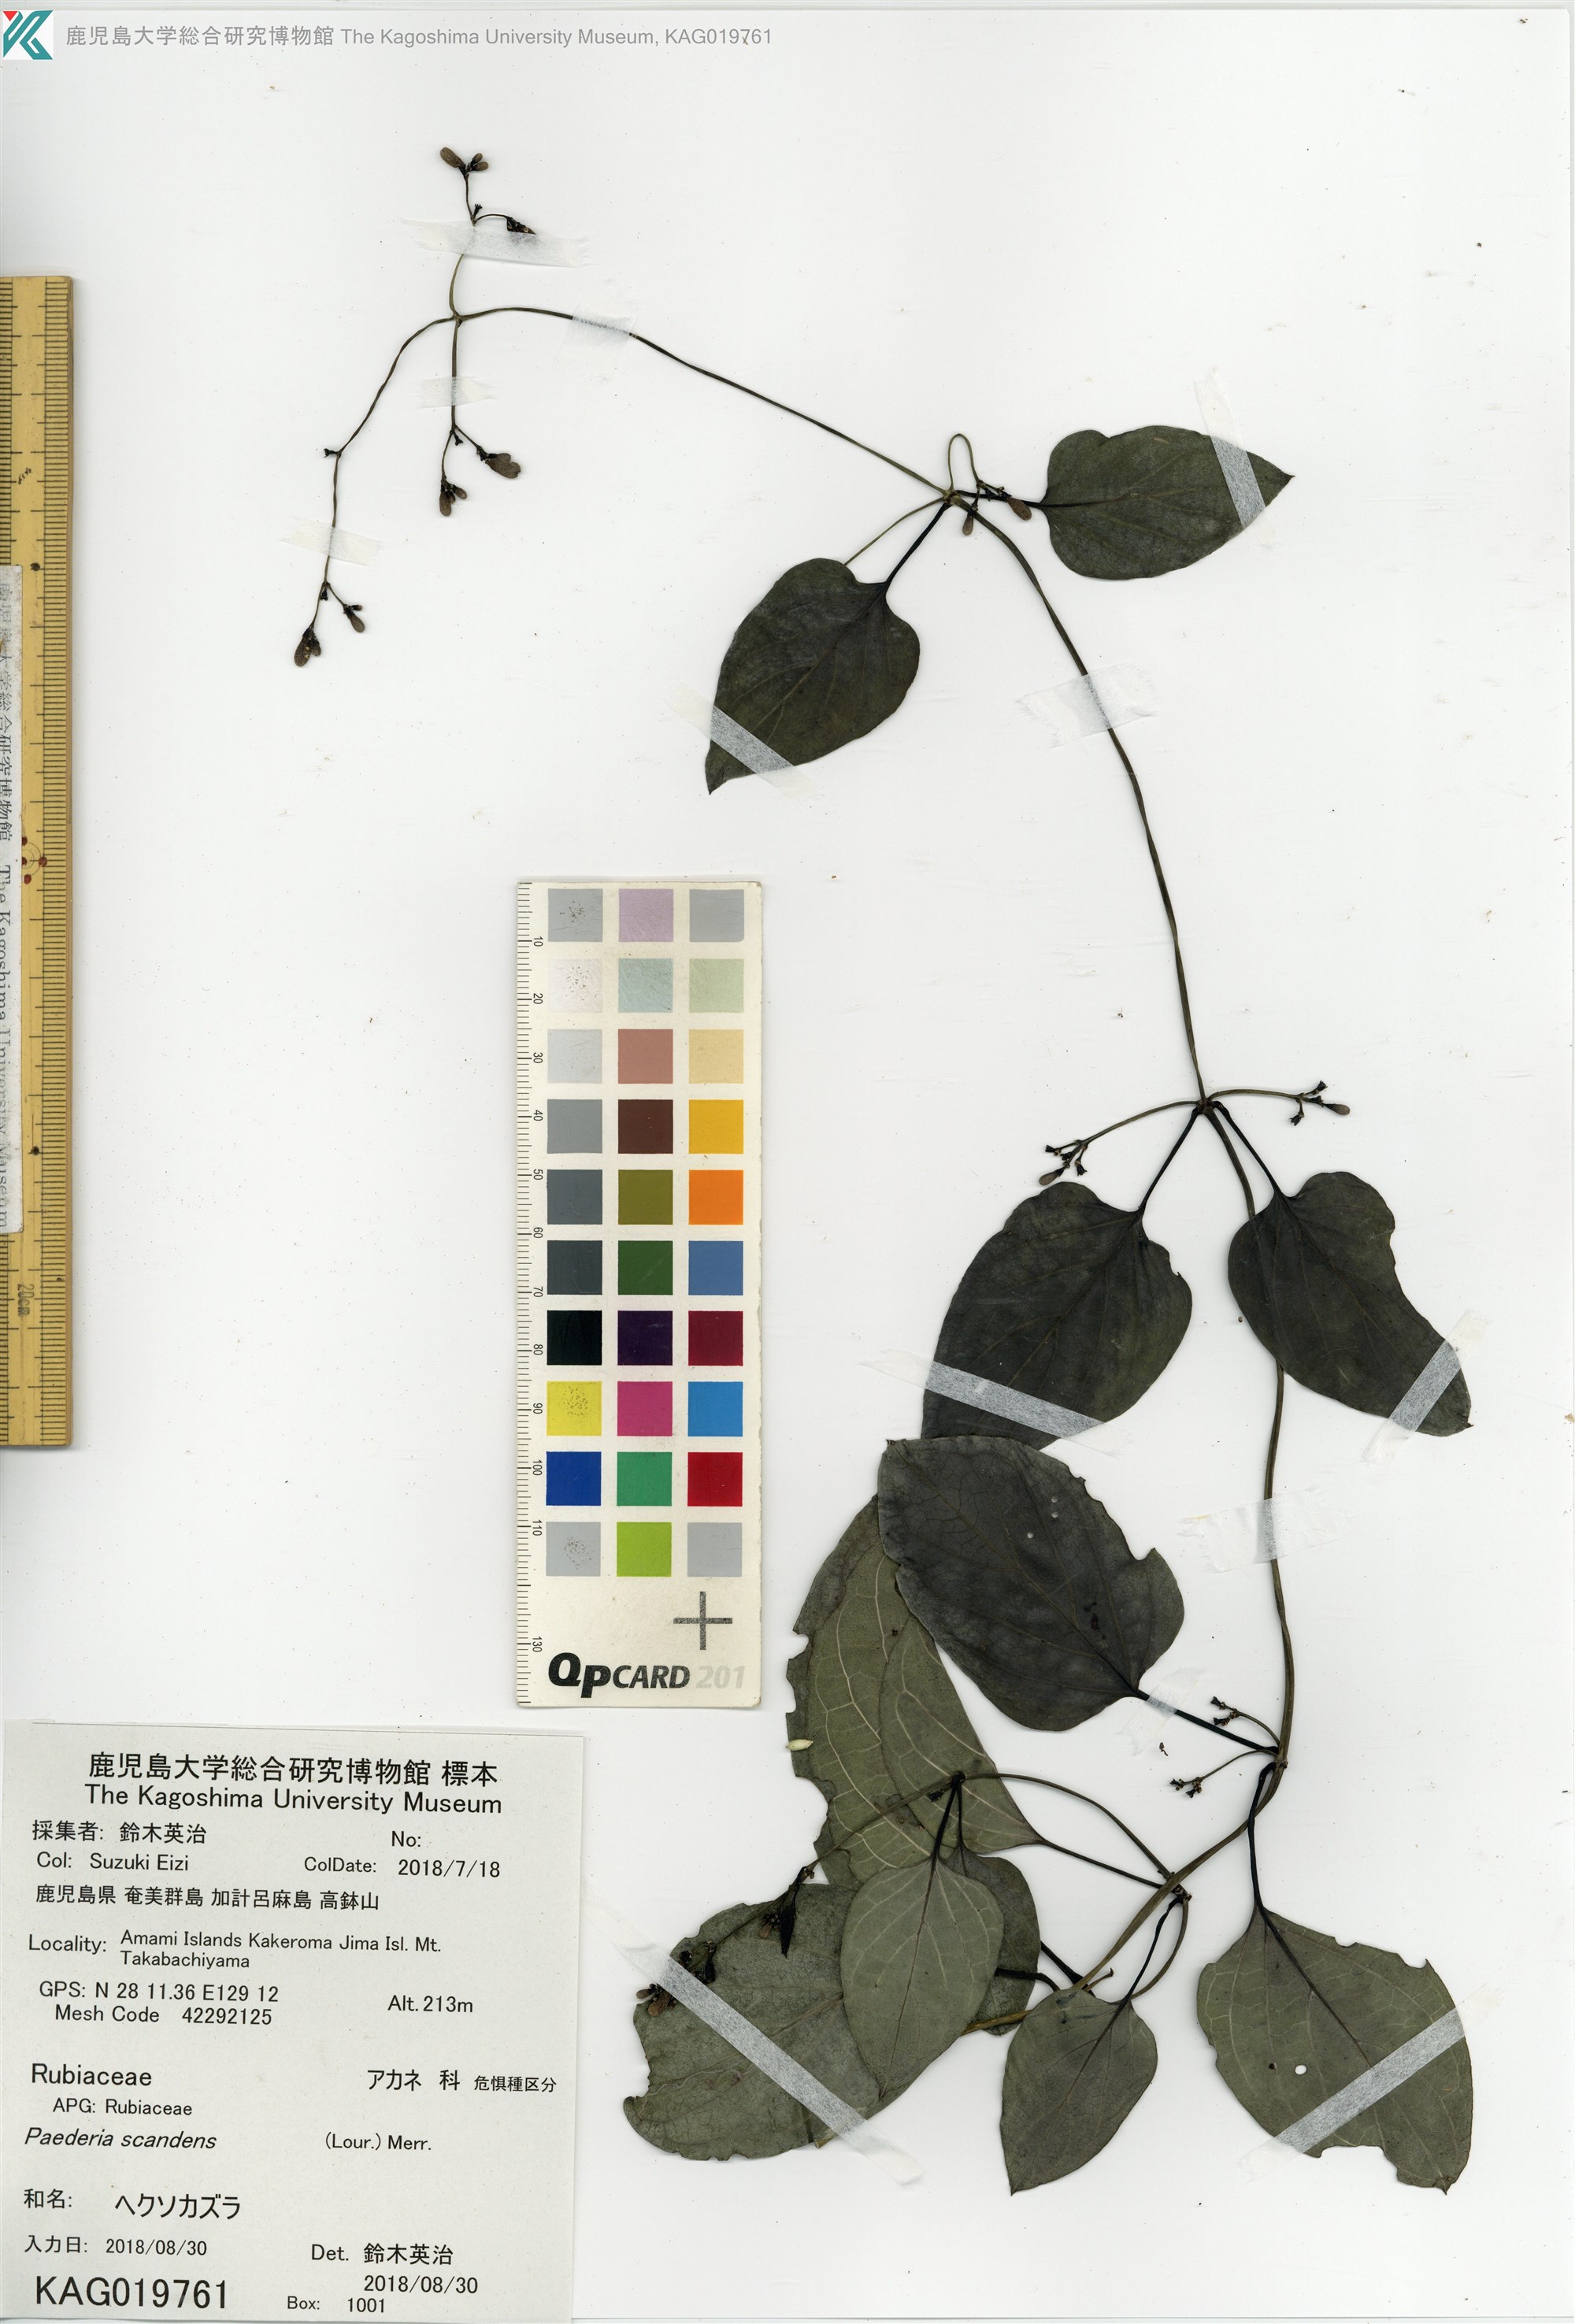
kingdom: Plantae
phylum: Tracheophyta
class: Magnoliopsida
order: Gentianales
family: Rubiaceae
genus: Paederia
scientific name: Paederia foetida
